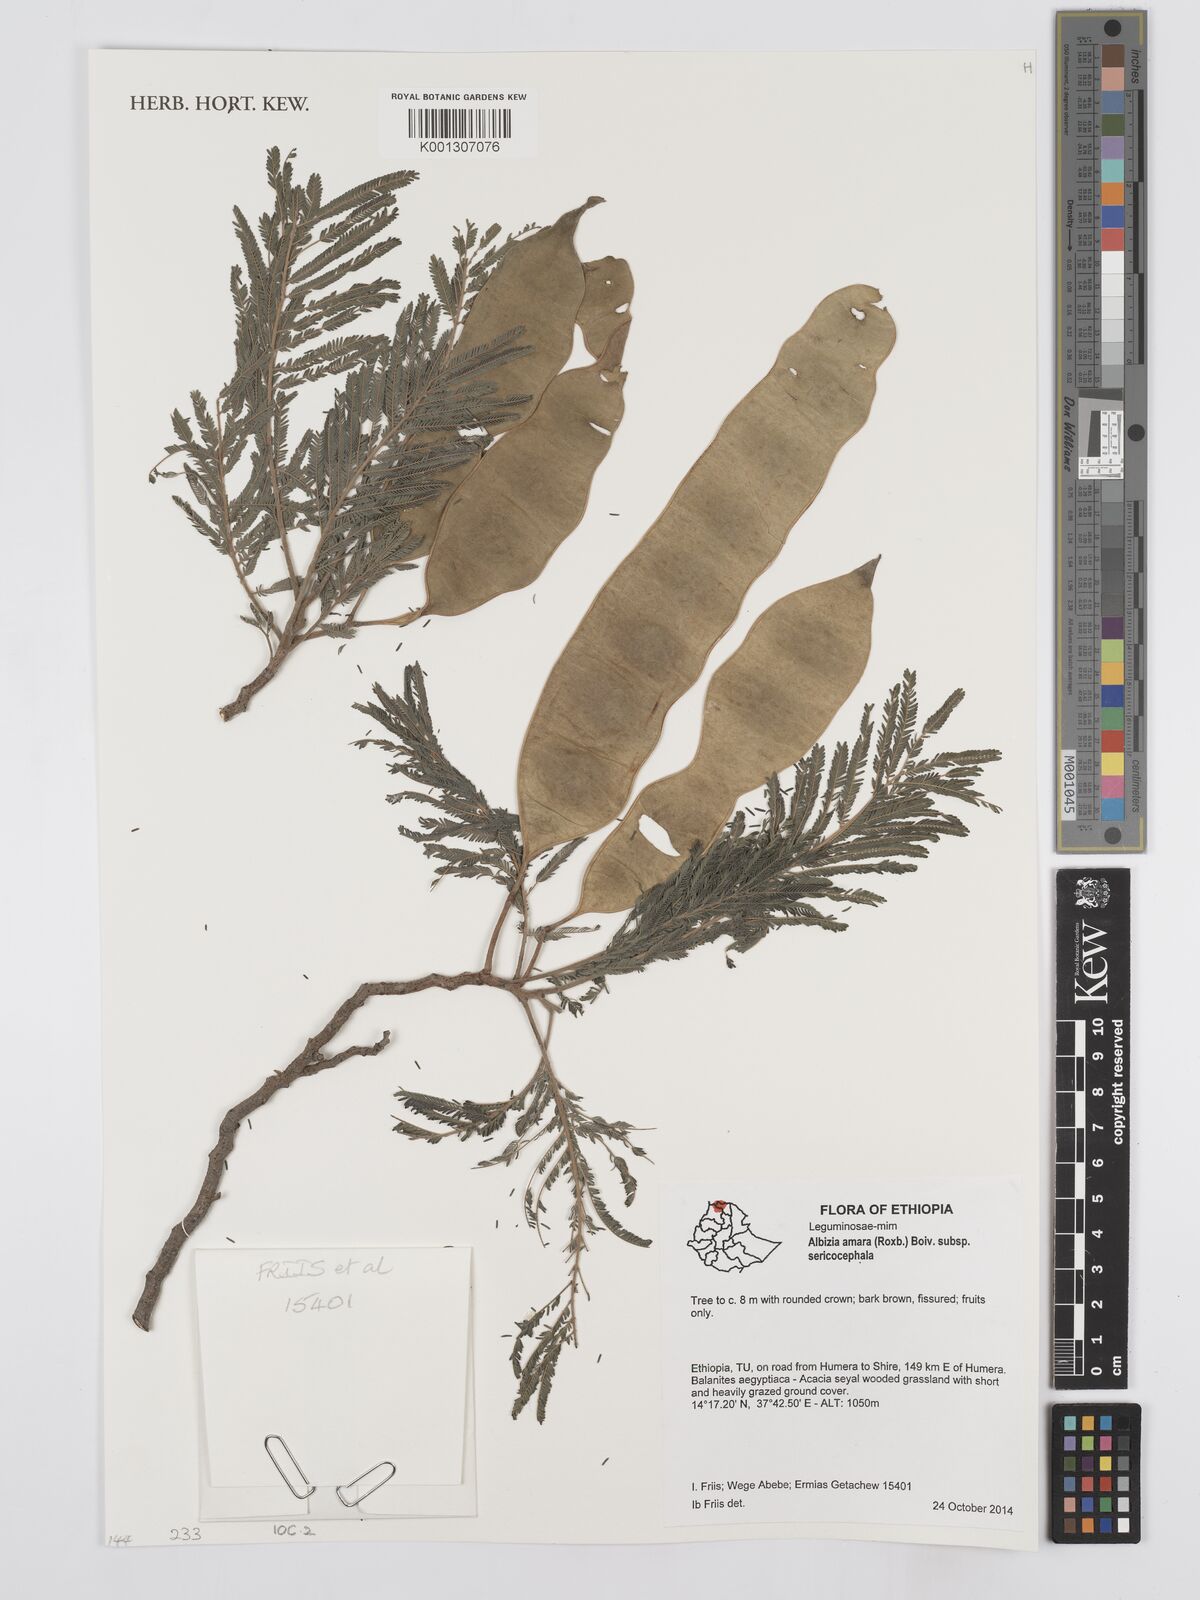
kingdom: Plantae
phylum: Tracheophyta
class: Magnoliopsida
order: Fabales
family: Fabaceae
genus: Albizia
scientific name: Albizia amara
